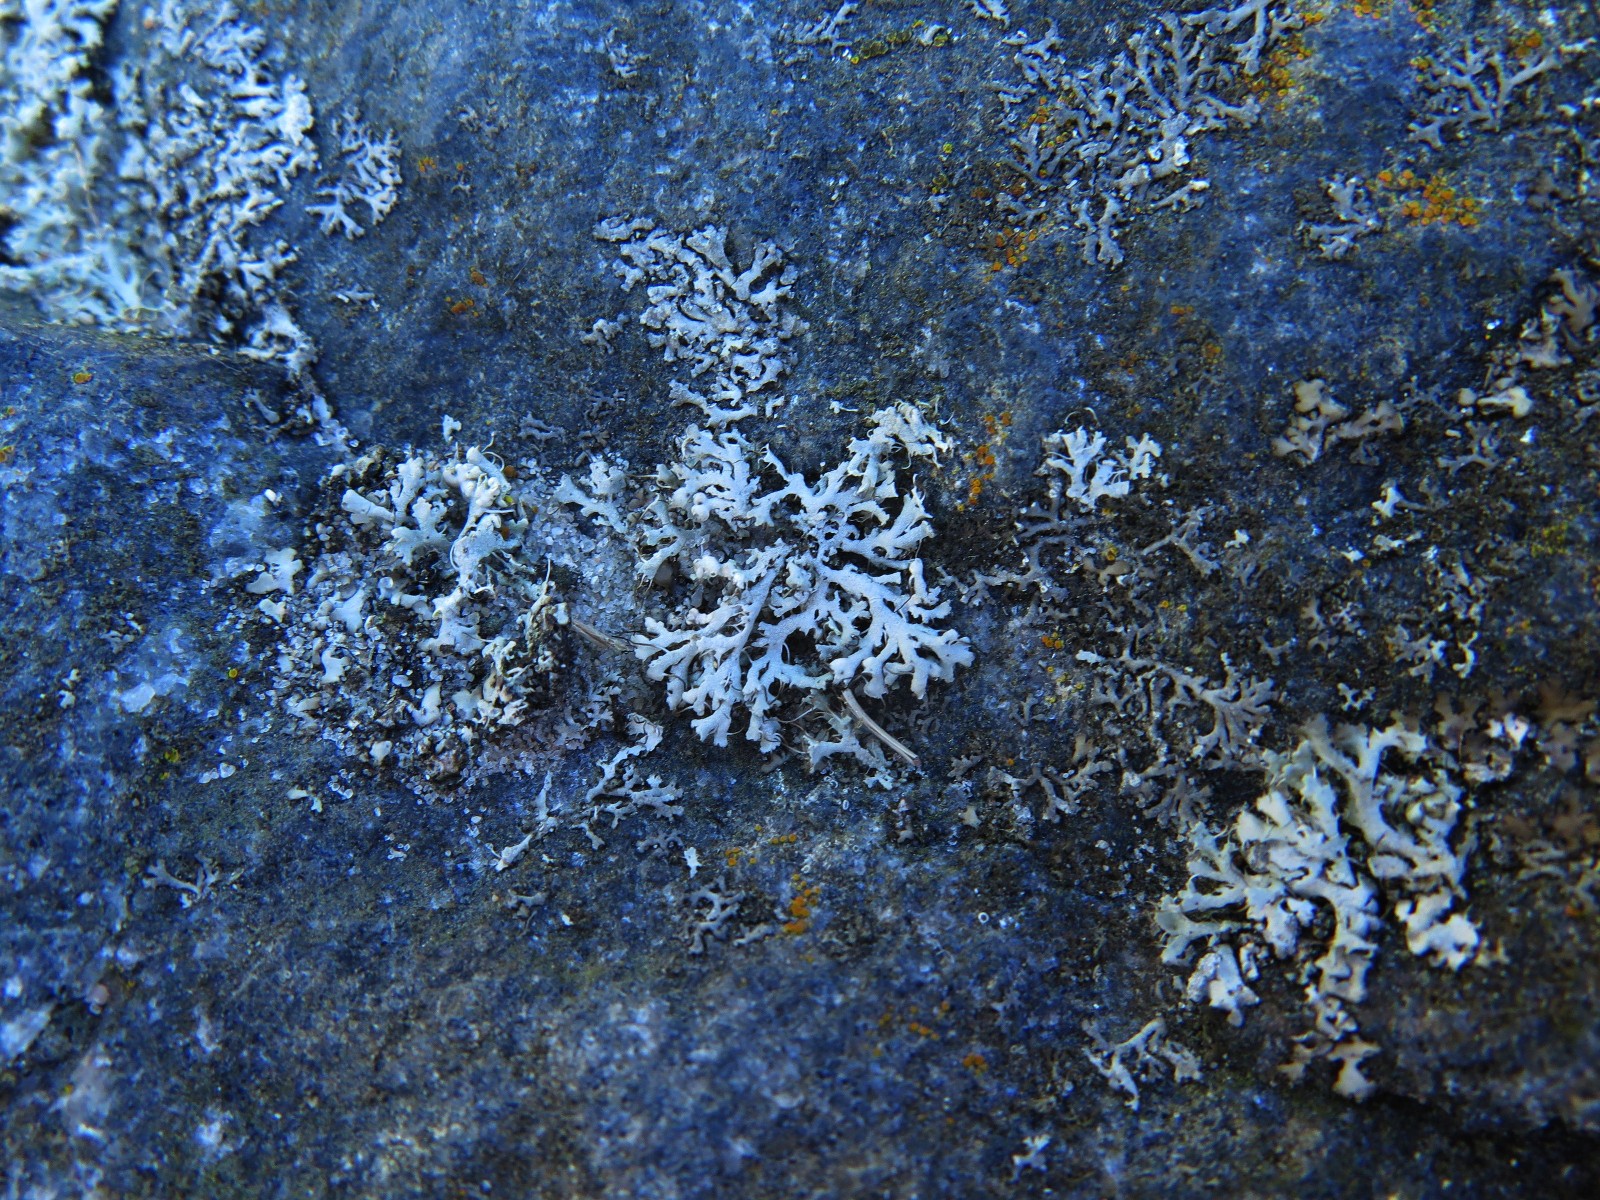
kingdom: Fungi
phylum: Ascomycota
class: Lecanoromycetes
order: Caliciales
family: Physciaceae
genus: Physcia
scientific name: Physcia tenella
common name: spæd rosetlav
